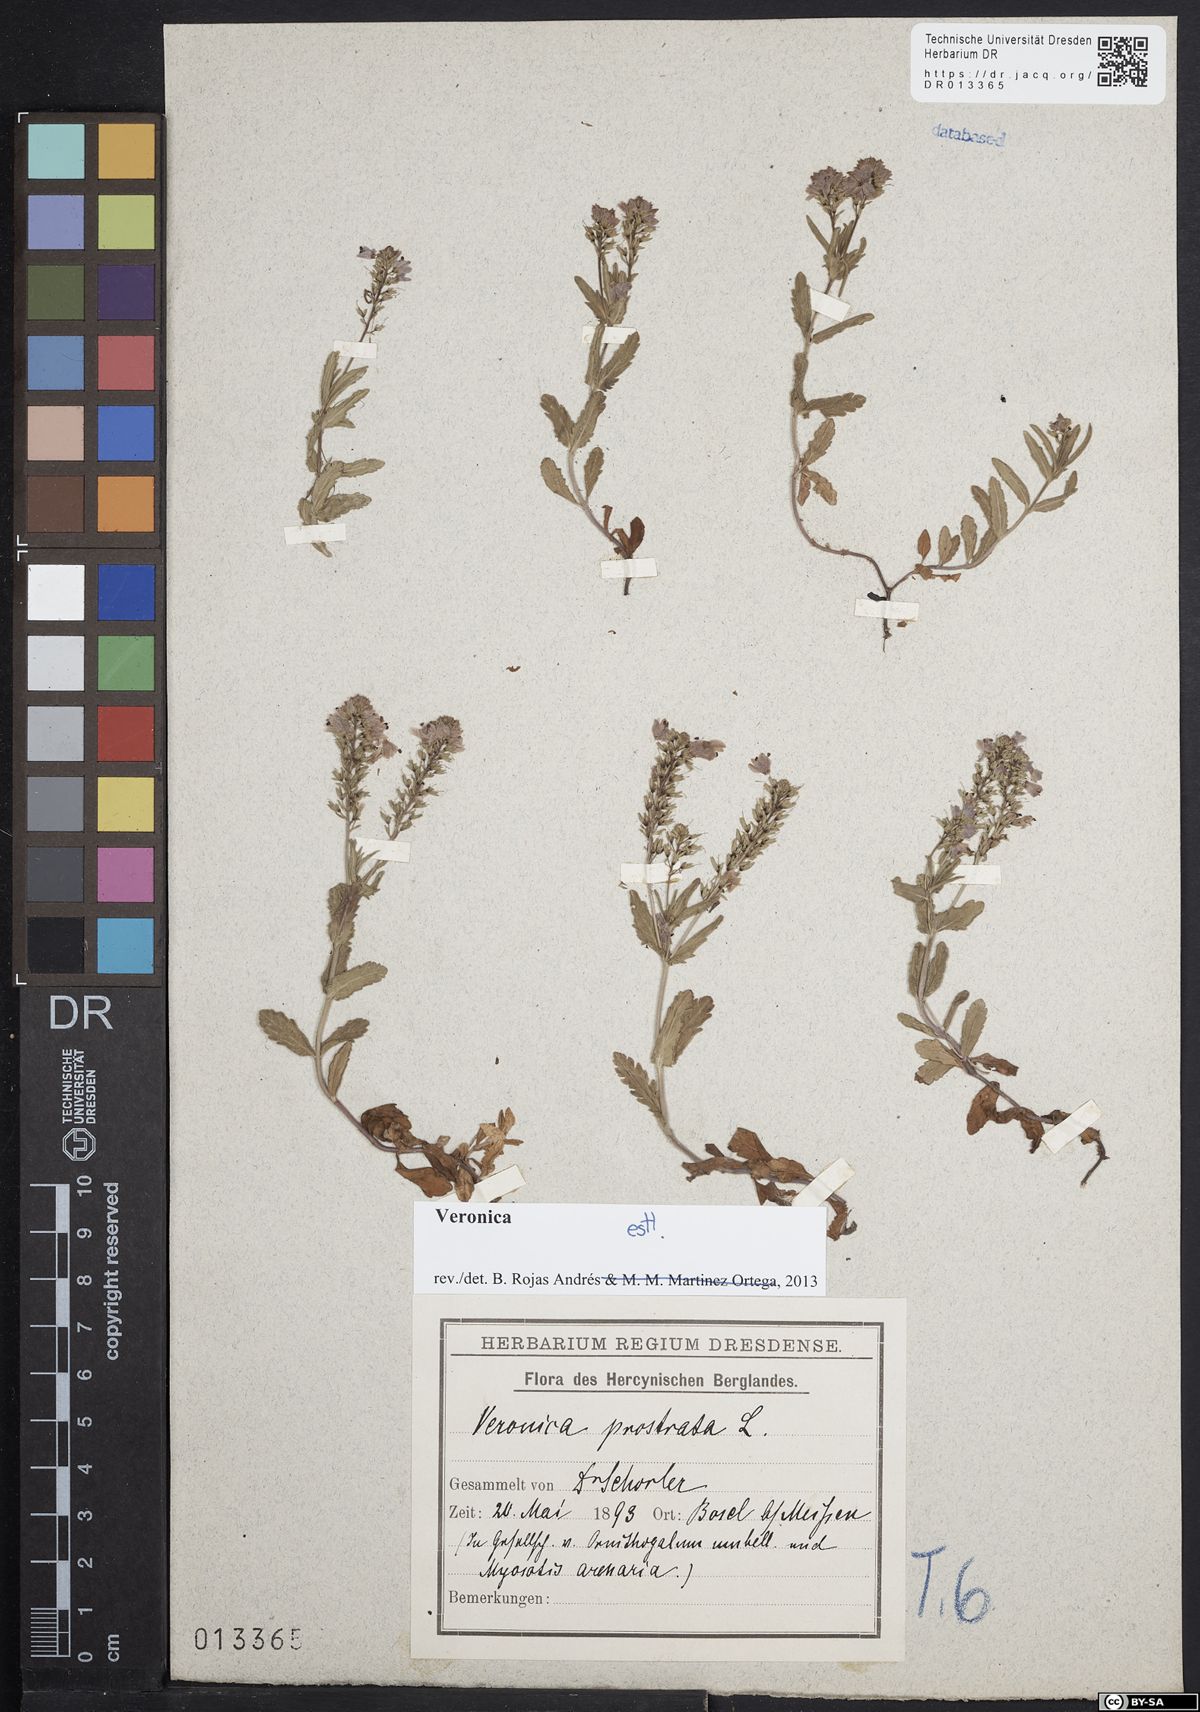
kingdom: Plantae
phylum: Tracheophyta
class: Magnoliopsida
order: Lamiales
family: Plantaginaceae
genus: Veronica
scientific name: Veronica prostrata
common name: Prostrate speedwell
